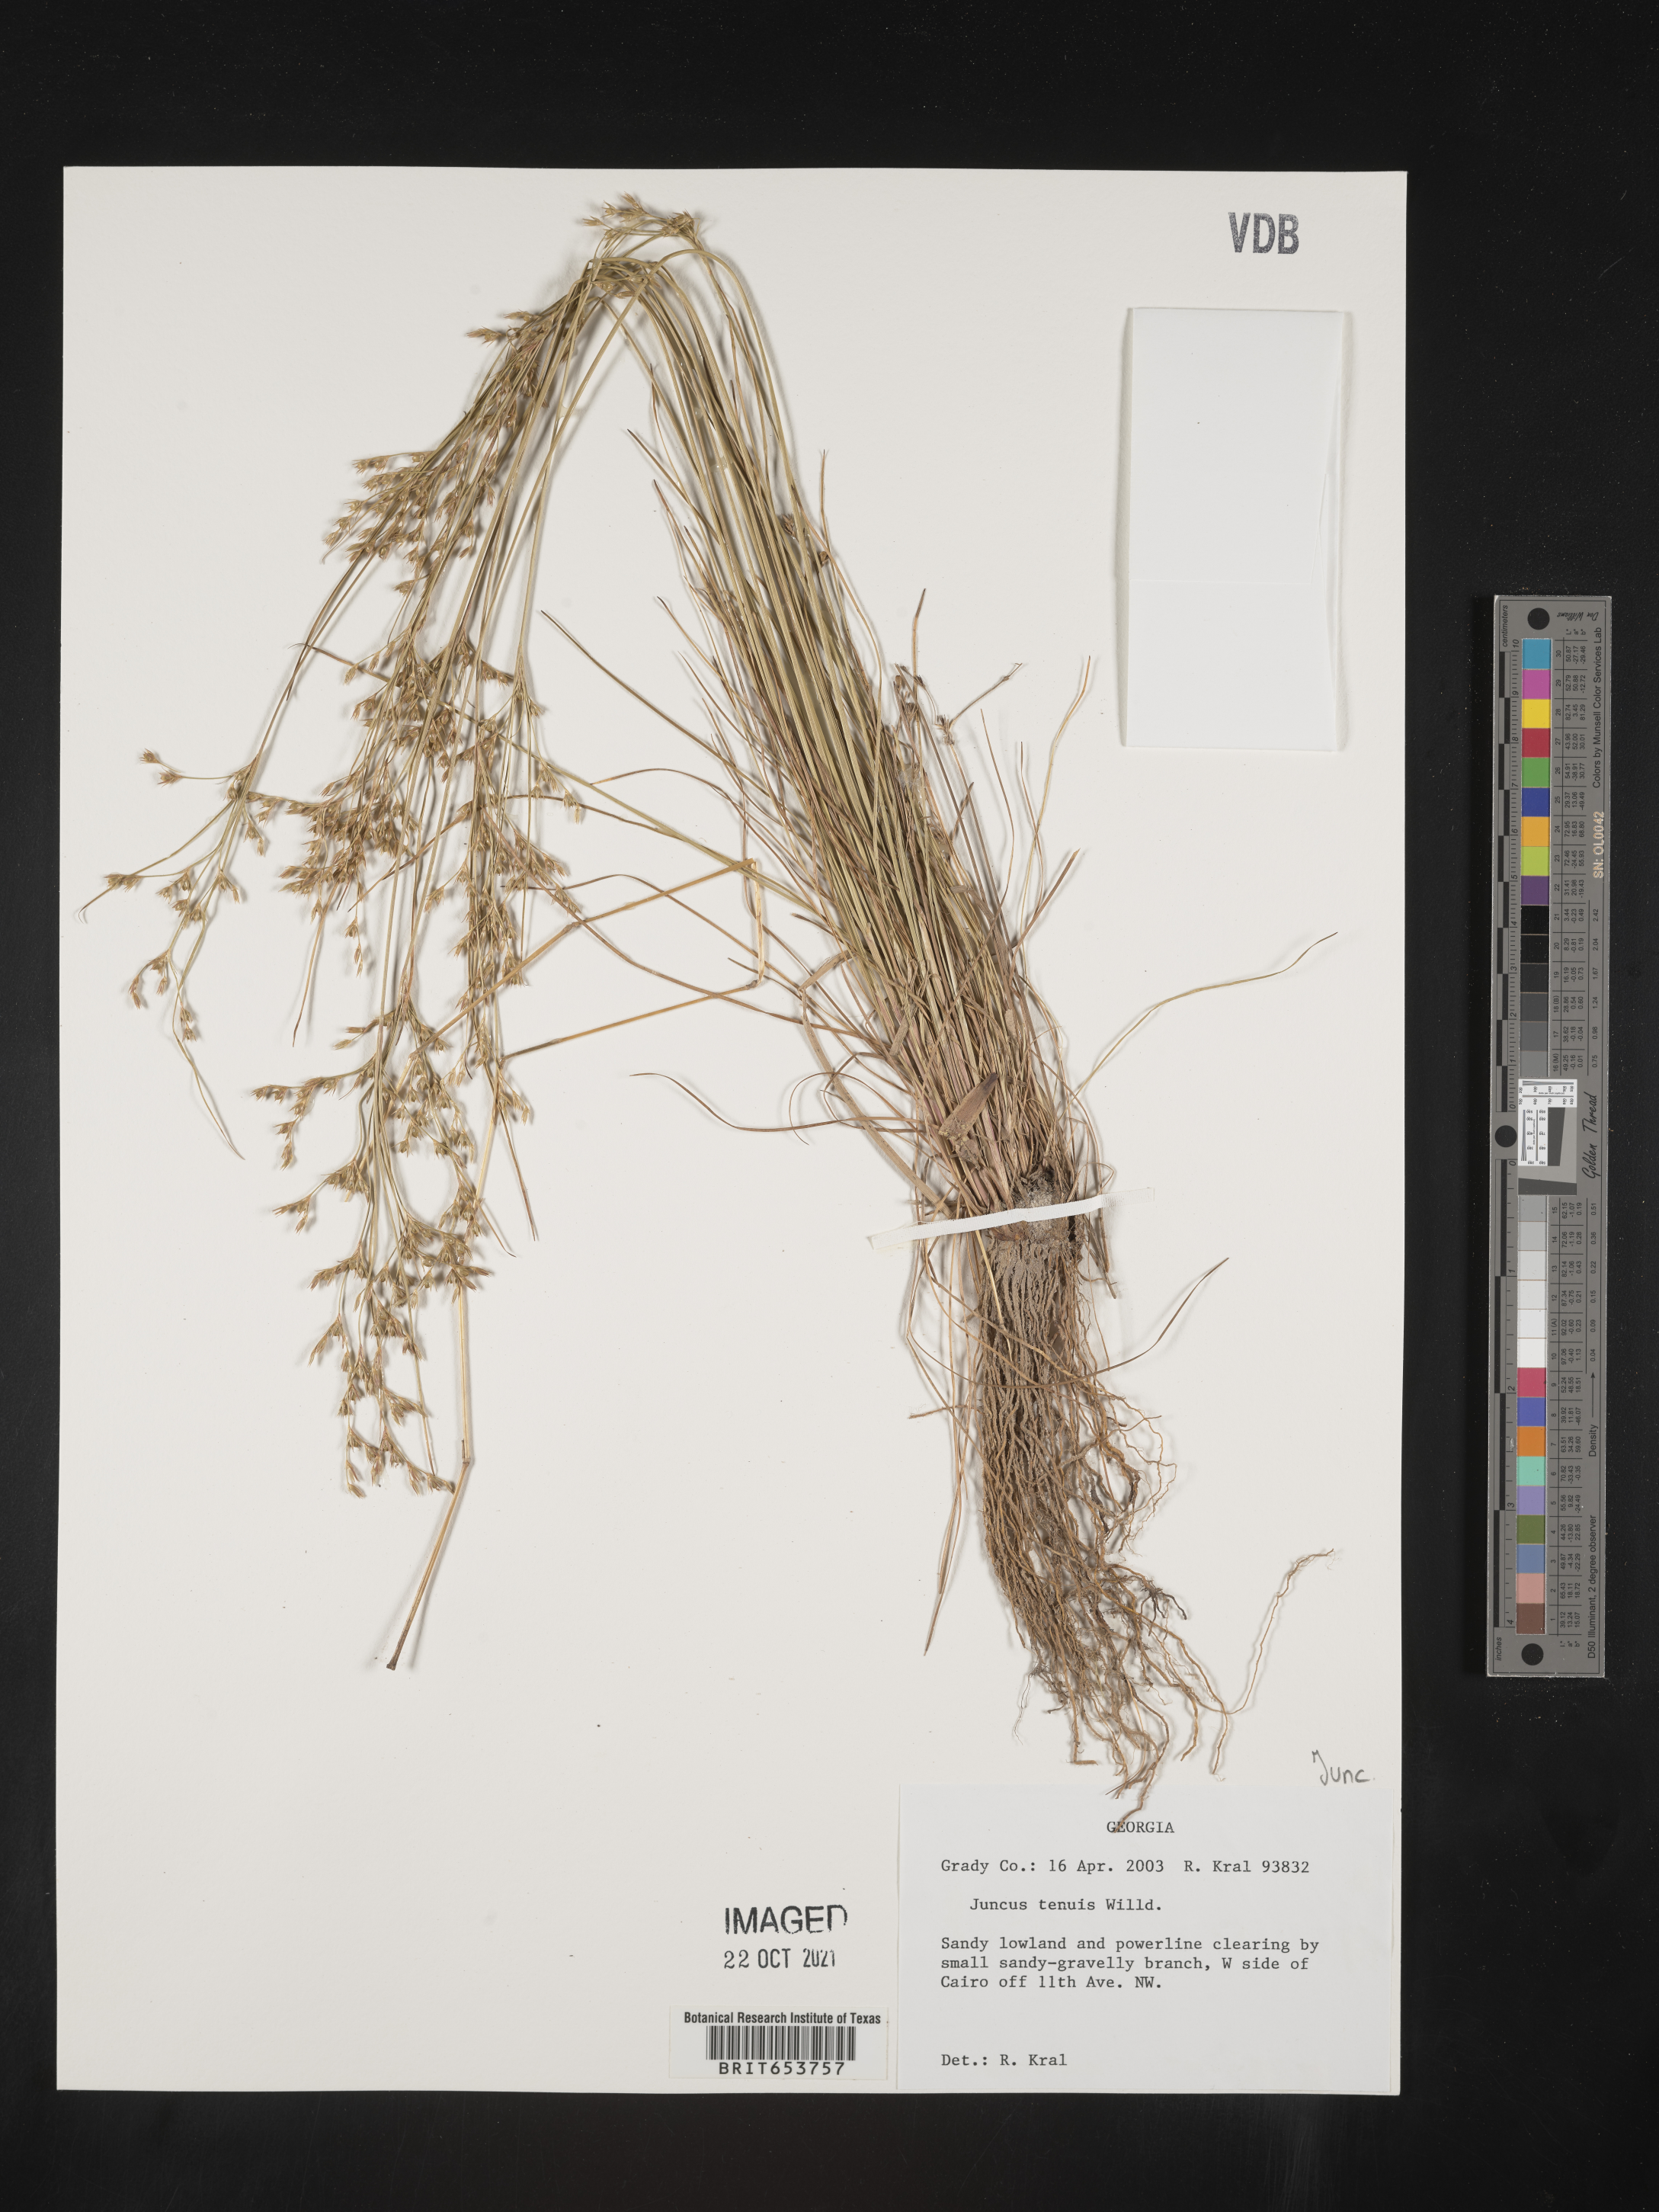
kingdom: Plantae
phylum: Tracheophyta
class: Liliopsida
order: Poales
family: Juncaceae
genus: Juncus
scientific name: Juncus tenuis
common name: Slender rush
